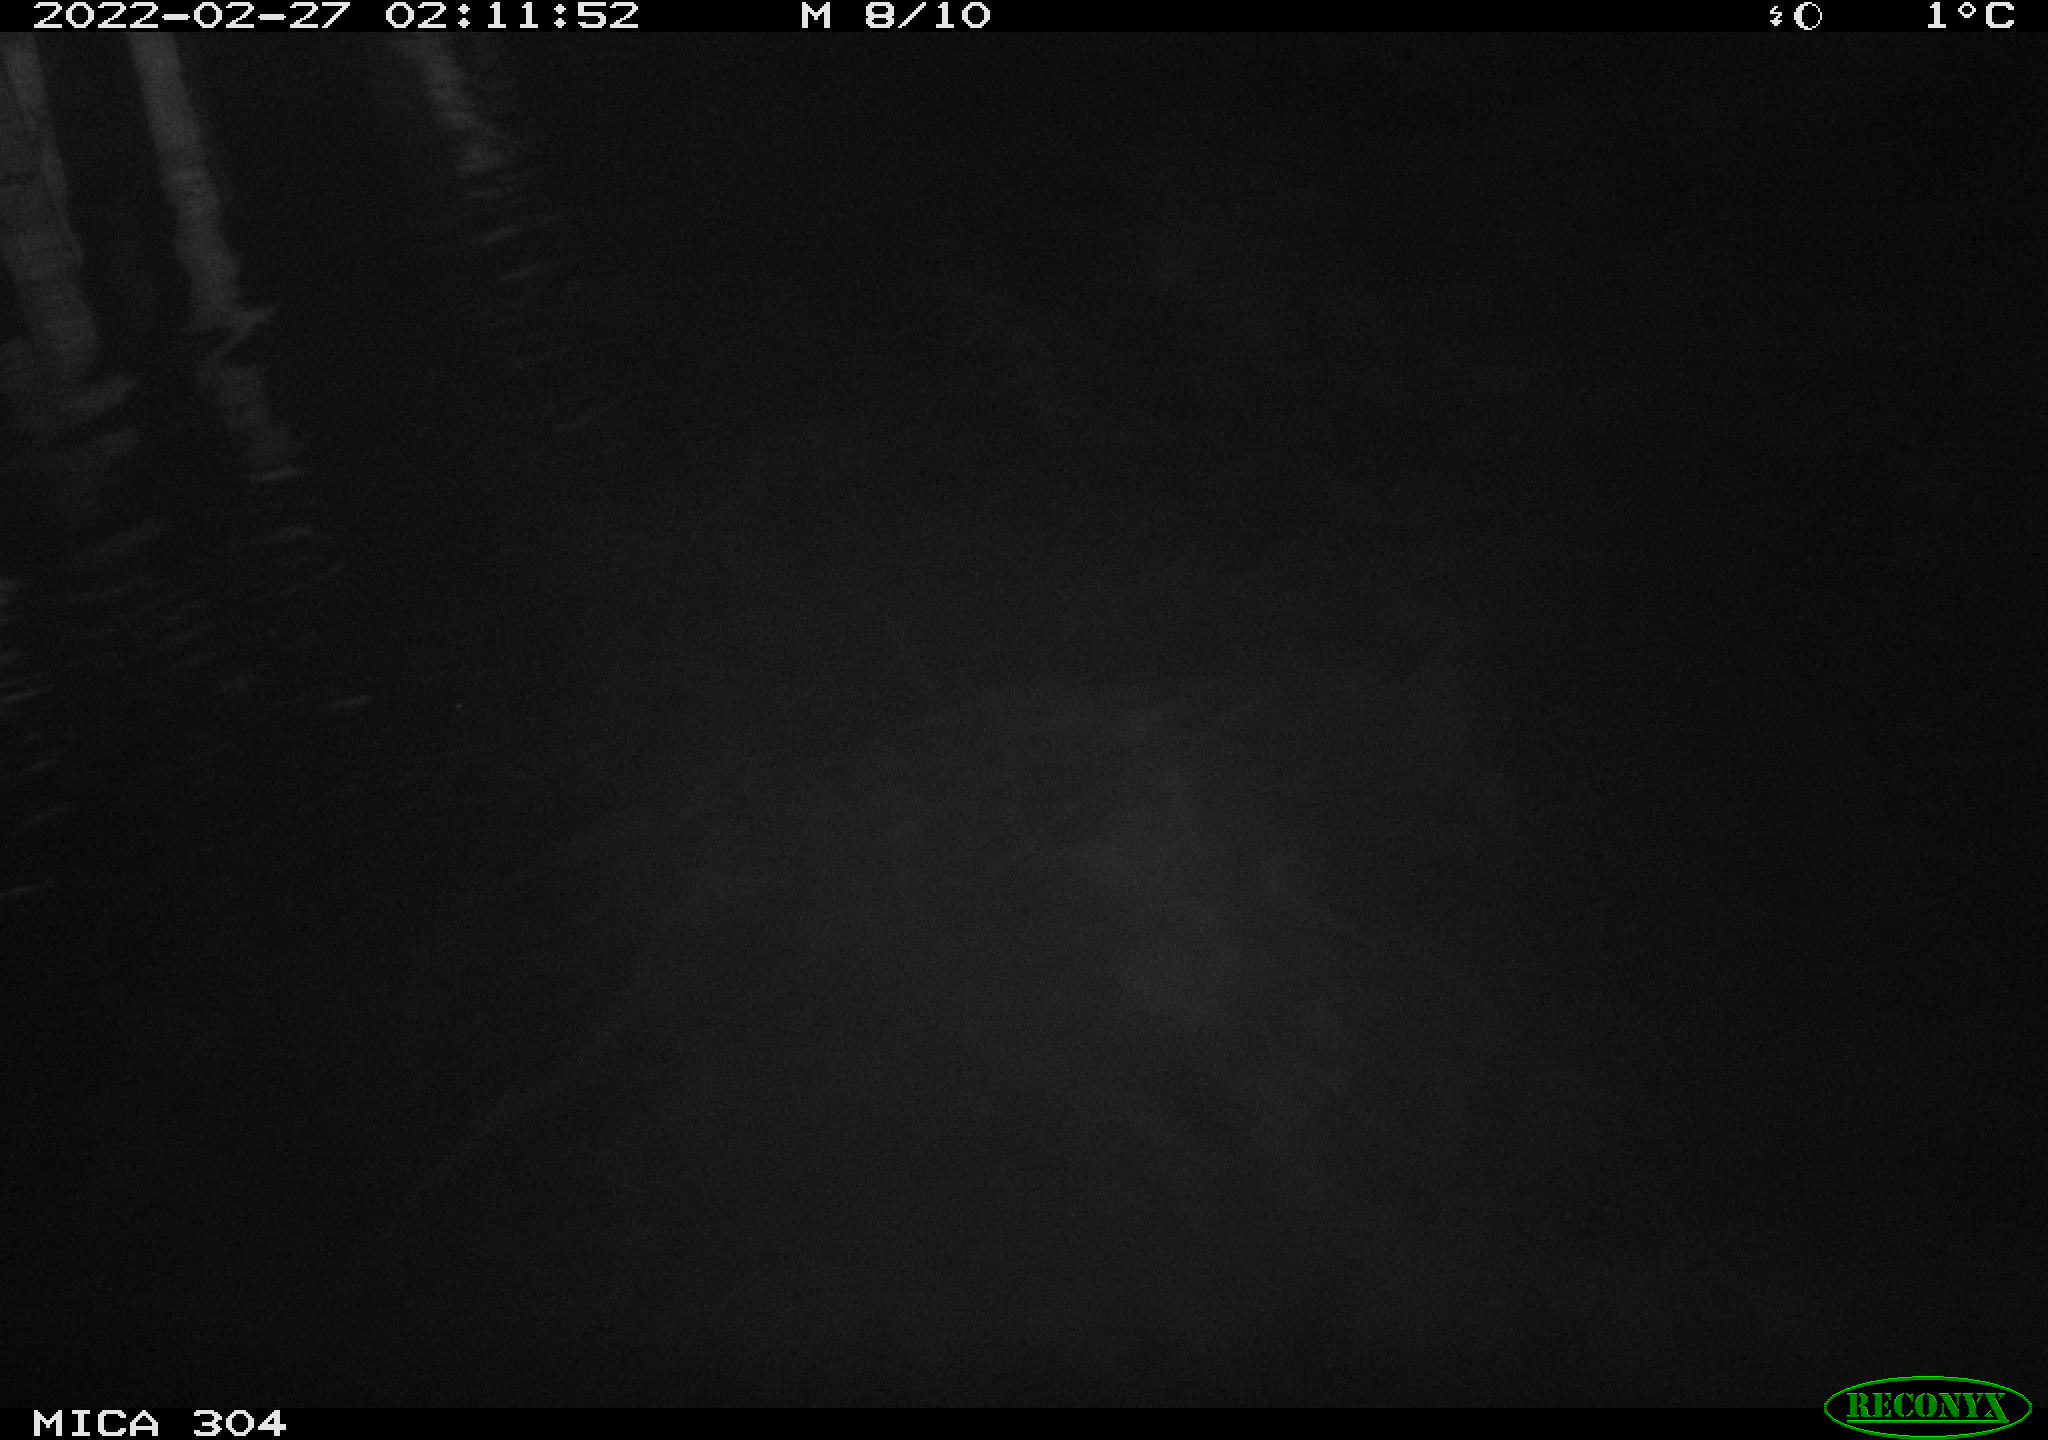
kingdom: Animalia
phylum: Chordata
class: Mammalia
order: Rodentia
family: Cricetidae
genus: Ondatra
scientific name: Ondatra zibethicus
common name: Muskrat
